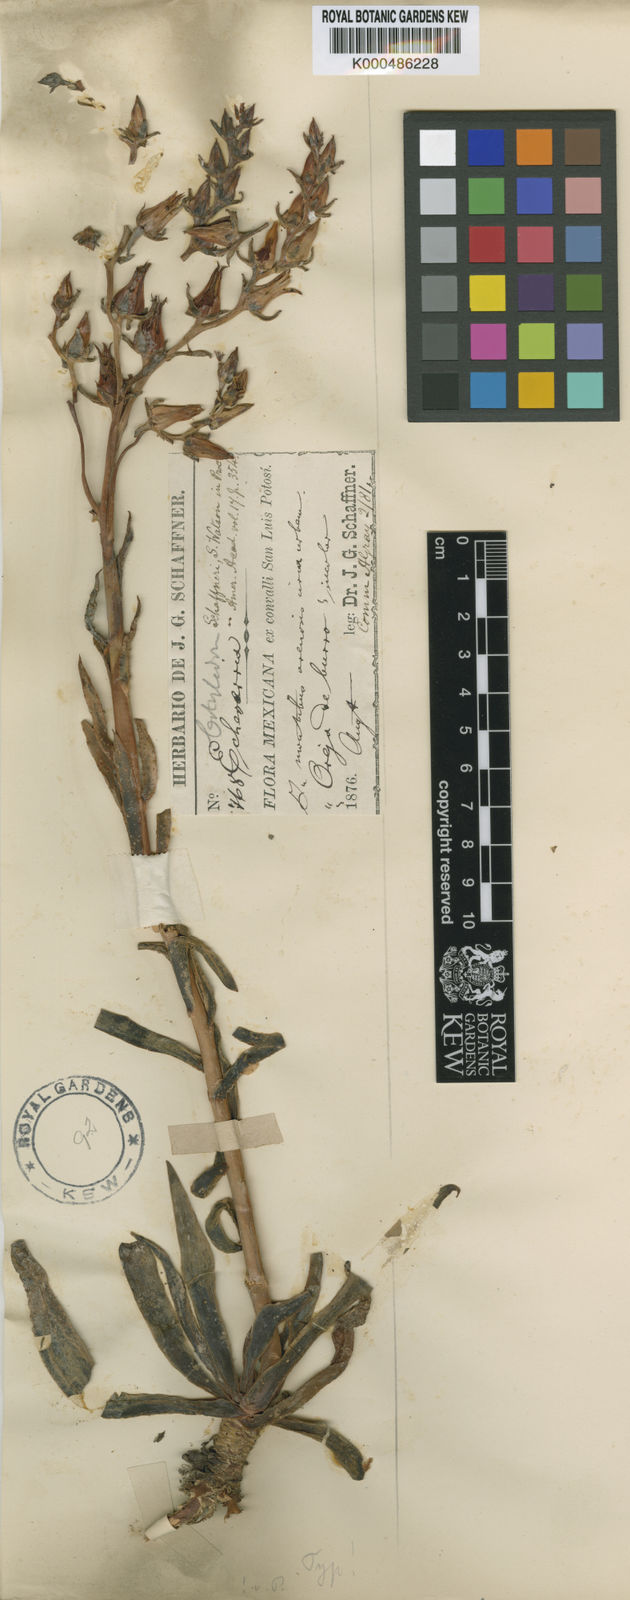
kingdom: Plantae
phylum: Tracheophyta
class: Magnoliopsida
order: Saxifragales
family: Crassulaceae
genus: Echeveria
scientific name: Echeveria schaffneri
